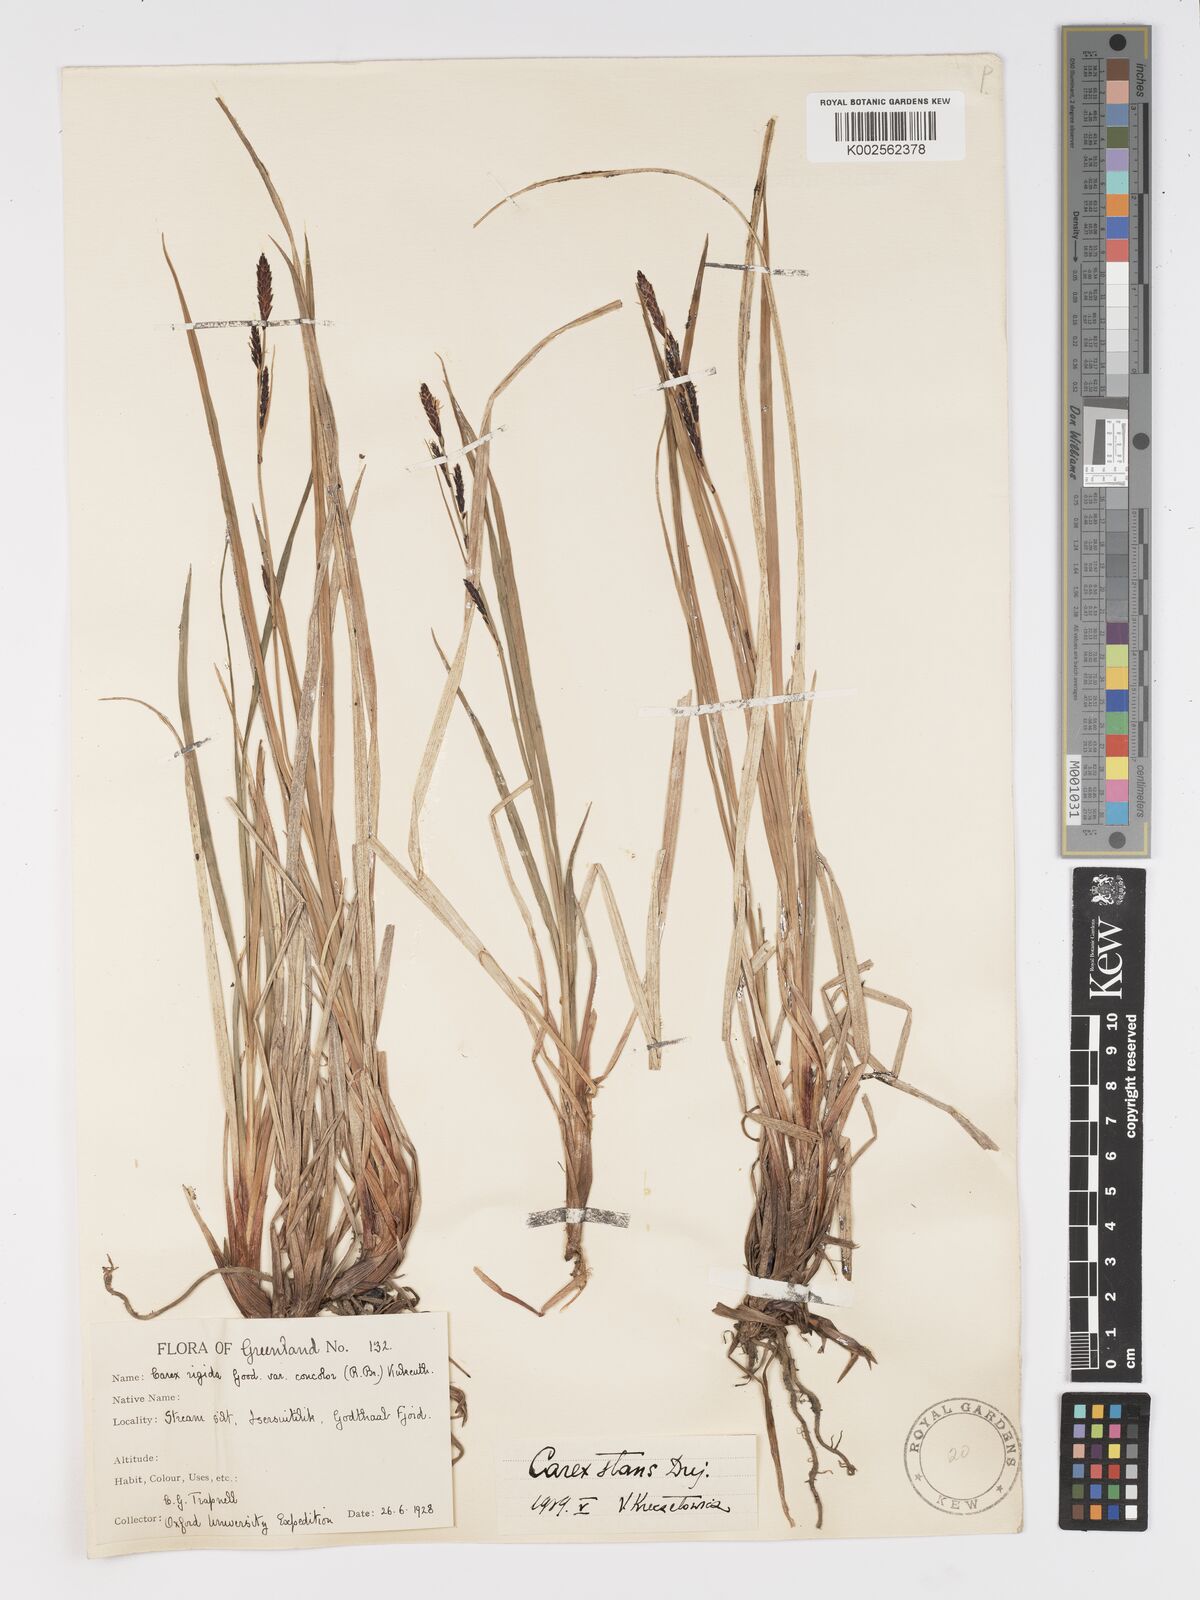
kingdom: Plantae
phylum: Tracheophyta
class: Liliopsida
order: Poales
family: Cyperaceae
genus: Carex
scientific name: Carex aquatilis
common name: Water sedge
